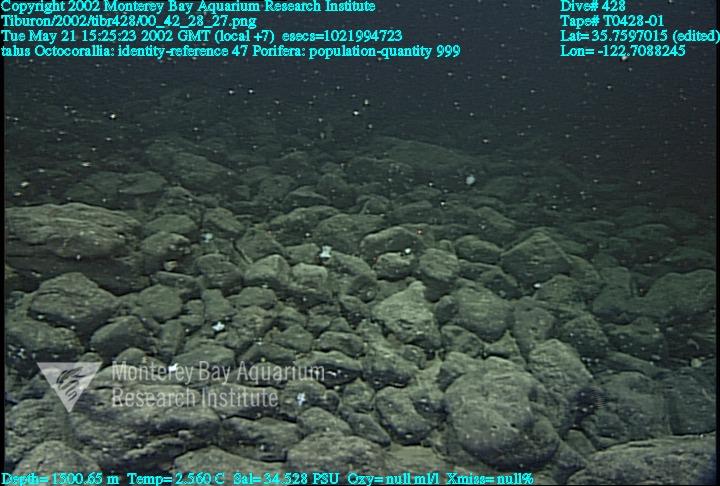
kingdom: Animalia
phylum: Porifera
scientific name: Porifera
